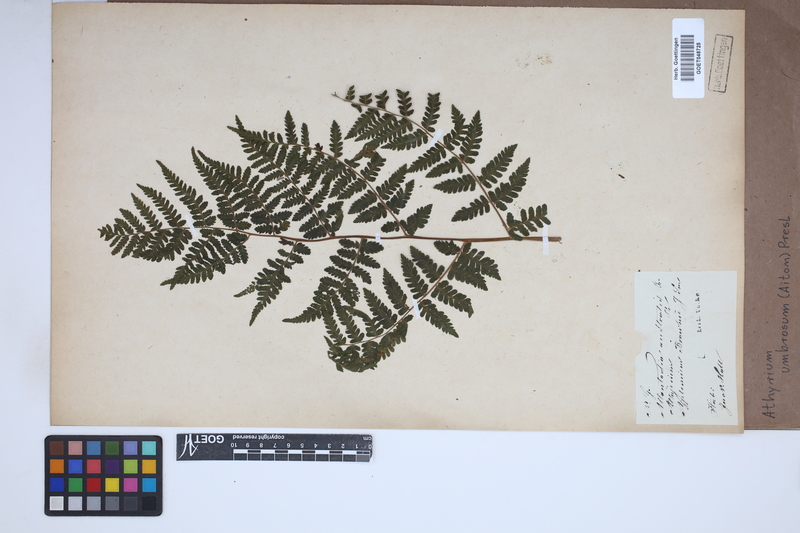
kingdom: Plantae
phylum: Tracheophyta
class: Polypodiopsida
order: Polypodiales
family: Athyriaceae
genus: Diplazium
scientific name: Diplazium caudatum
